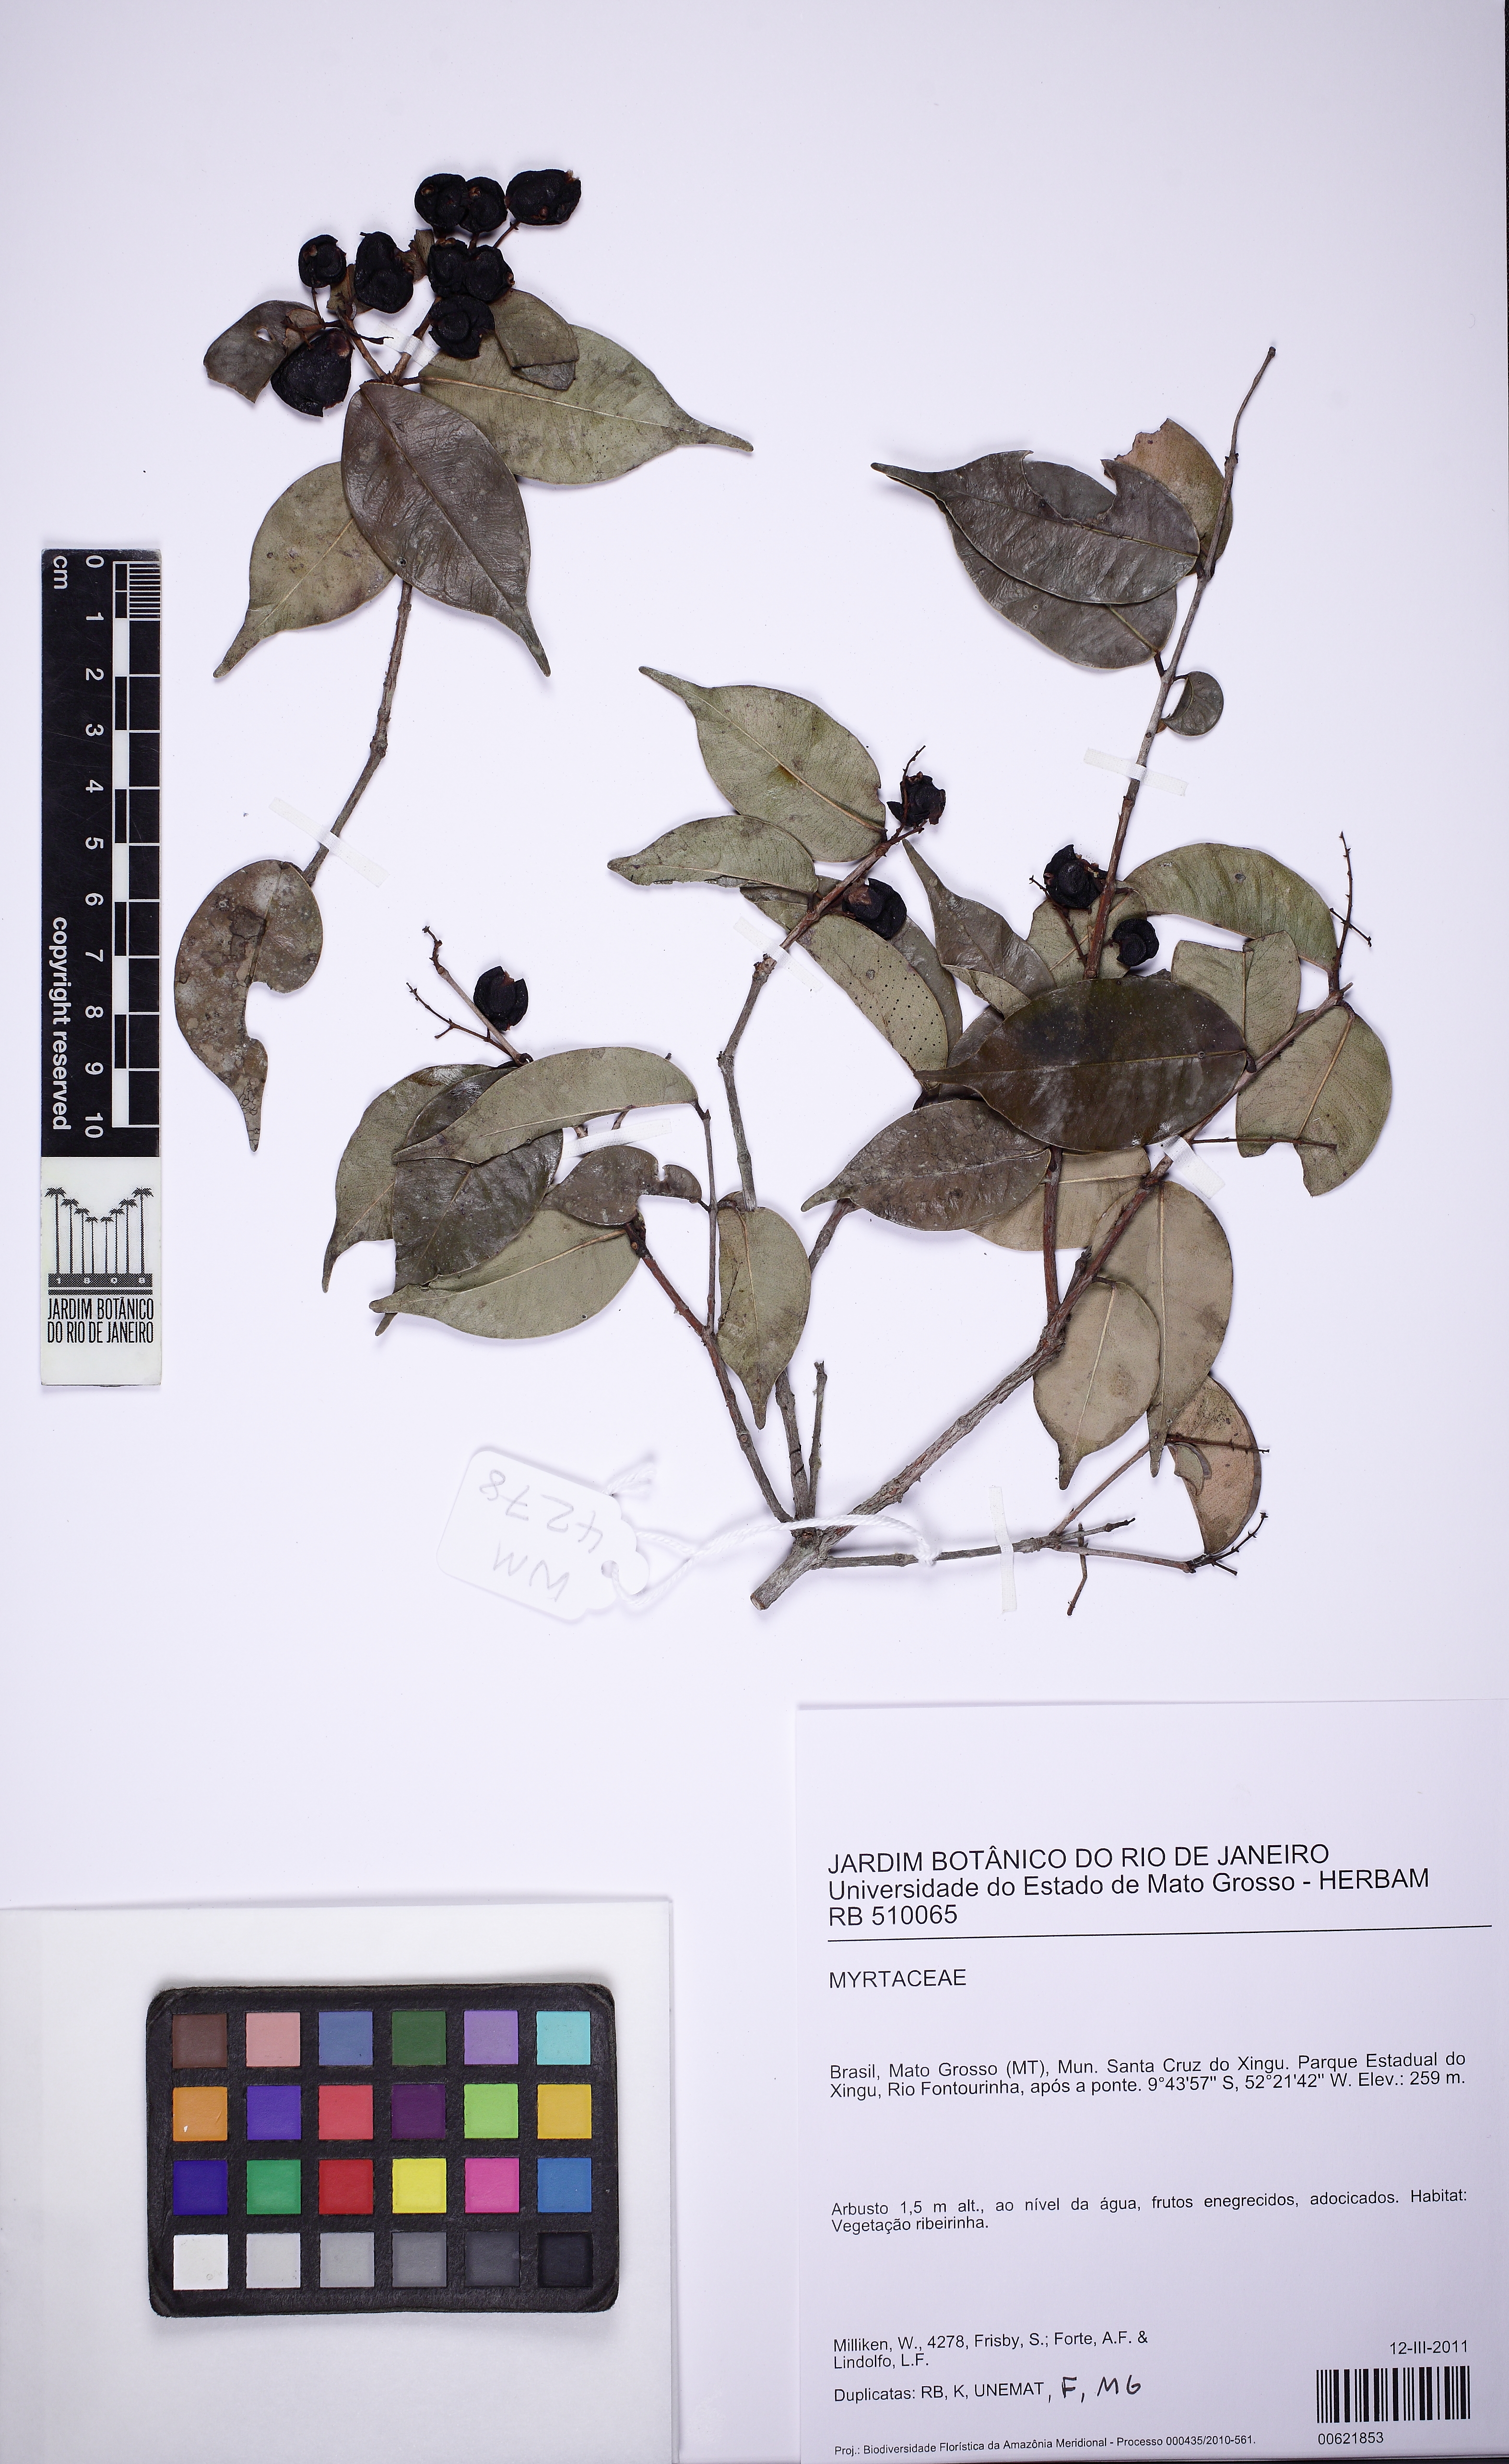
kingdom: Plantae
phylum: Tracheophyta
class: Magnoliopsida
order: Myrtales
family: Myrtaceae
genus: Myrcia
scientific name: Myrcia
